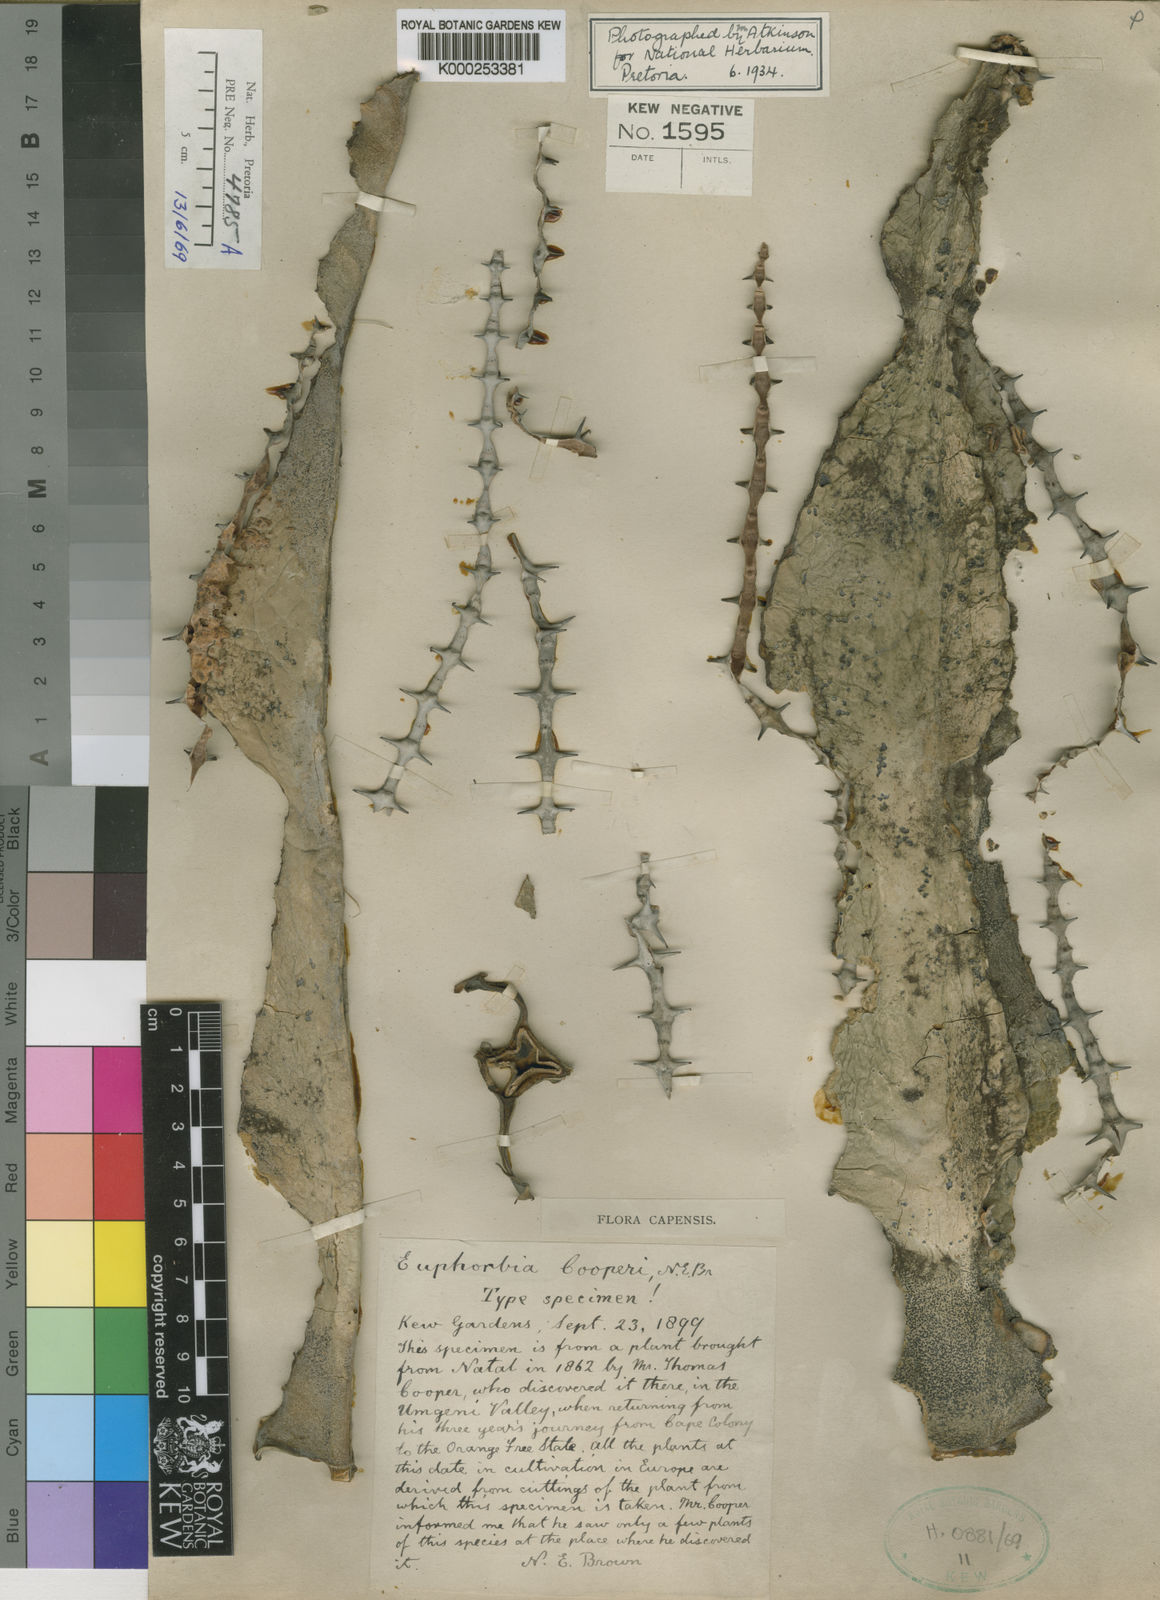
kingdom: Plantae
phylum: Tracheophyta
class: Magnoliopsida
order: Malpighiales
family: Euphorbiaceae
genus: Euphorbia
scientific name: Euphorbia cooperi
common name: Candelabra tree
